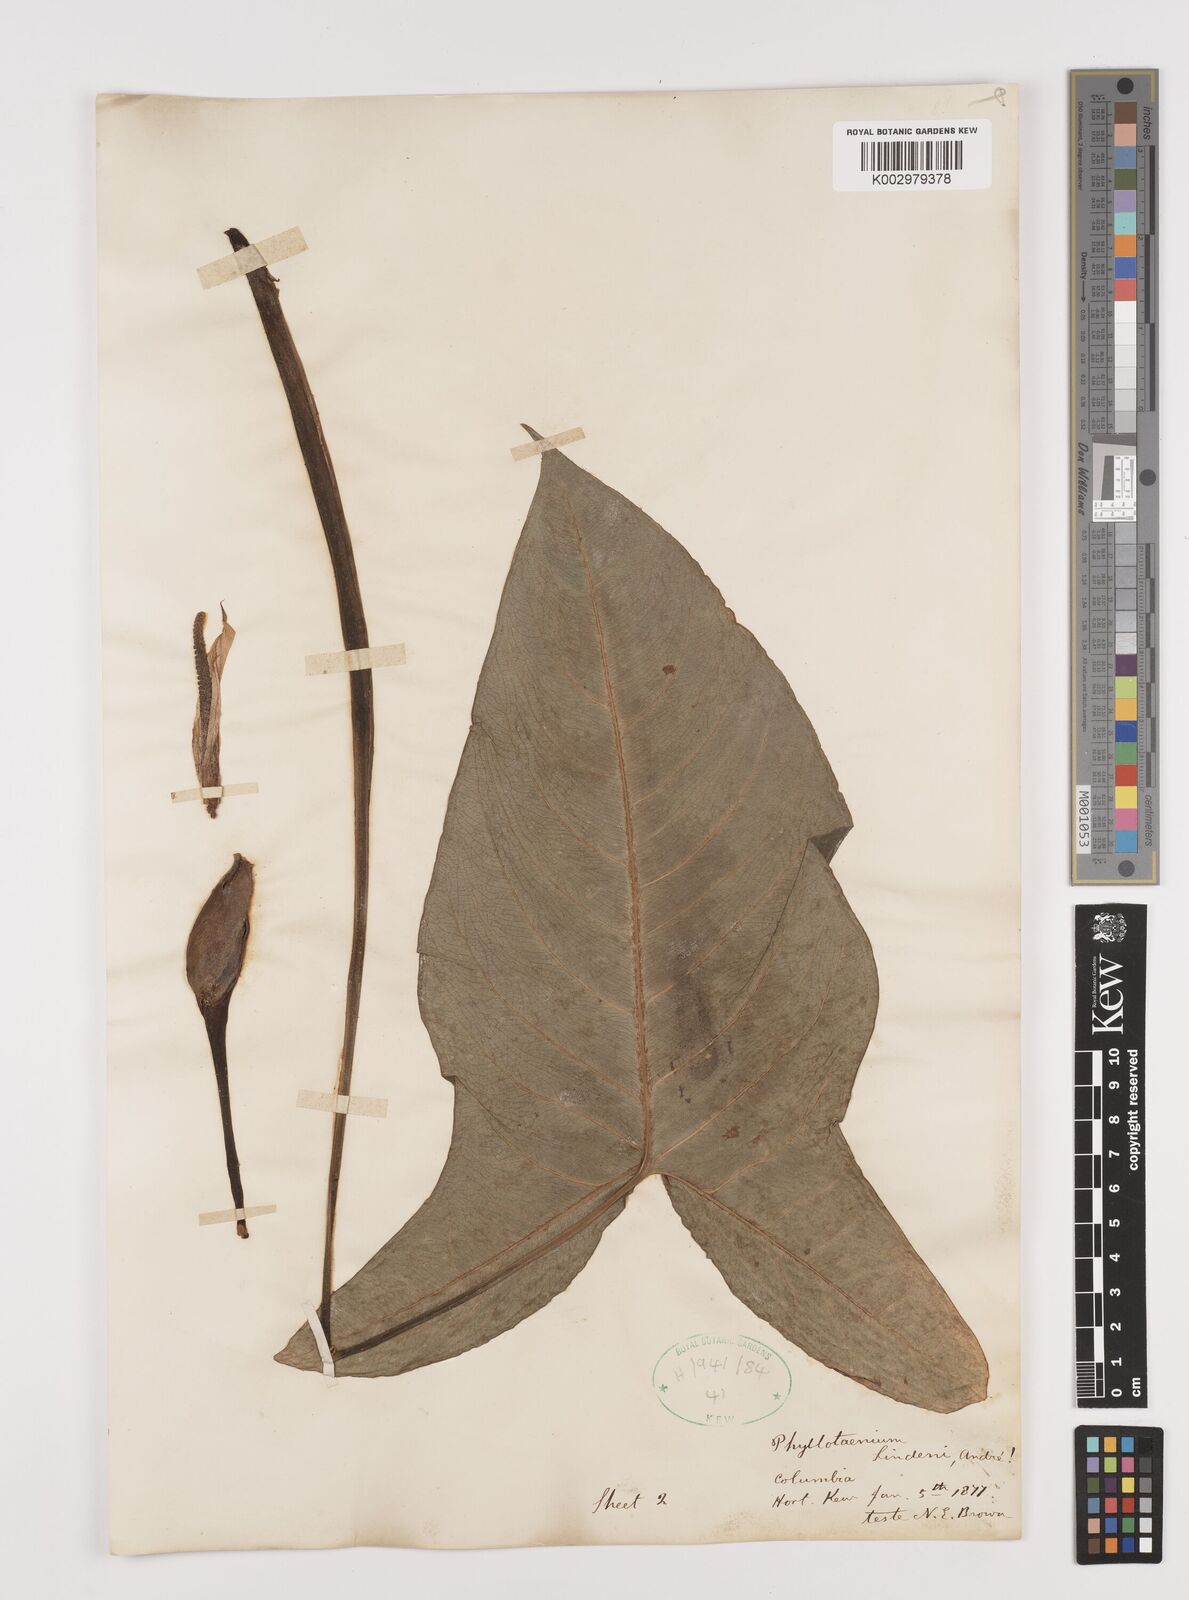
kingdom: Plantae
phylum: Tracheophyta
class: Liliopsida
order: Alismatales
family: Araceae
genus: Caladium
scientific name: Caladium
